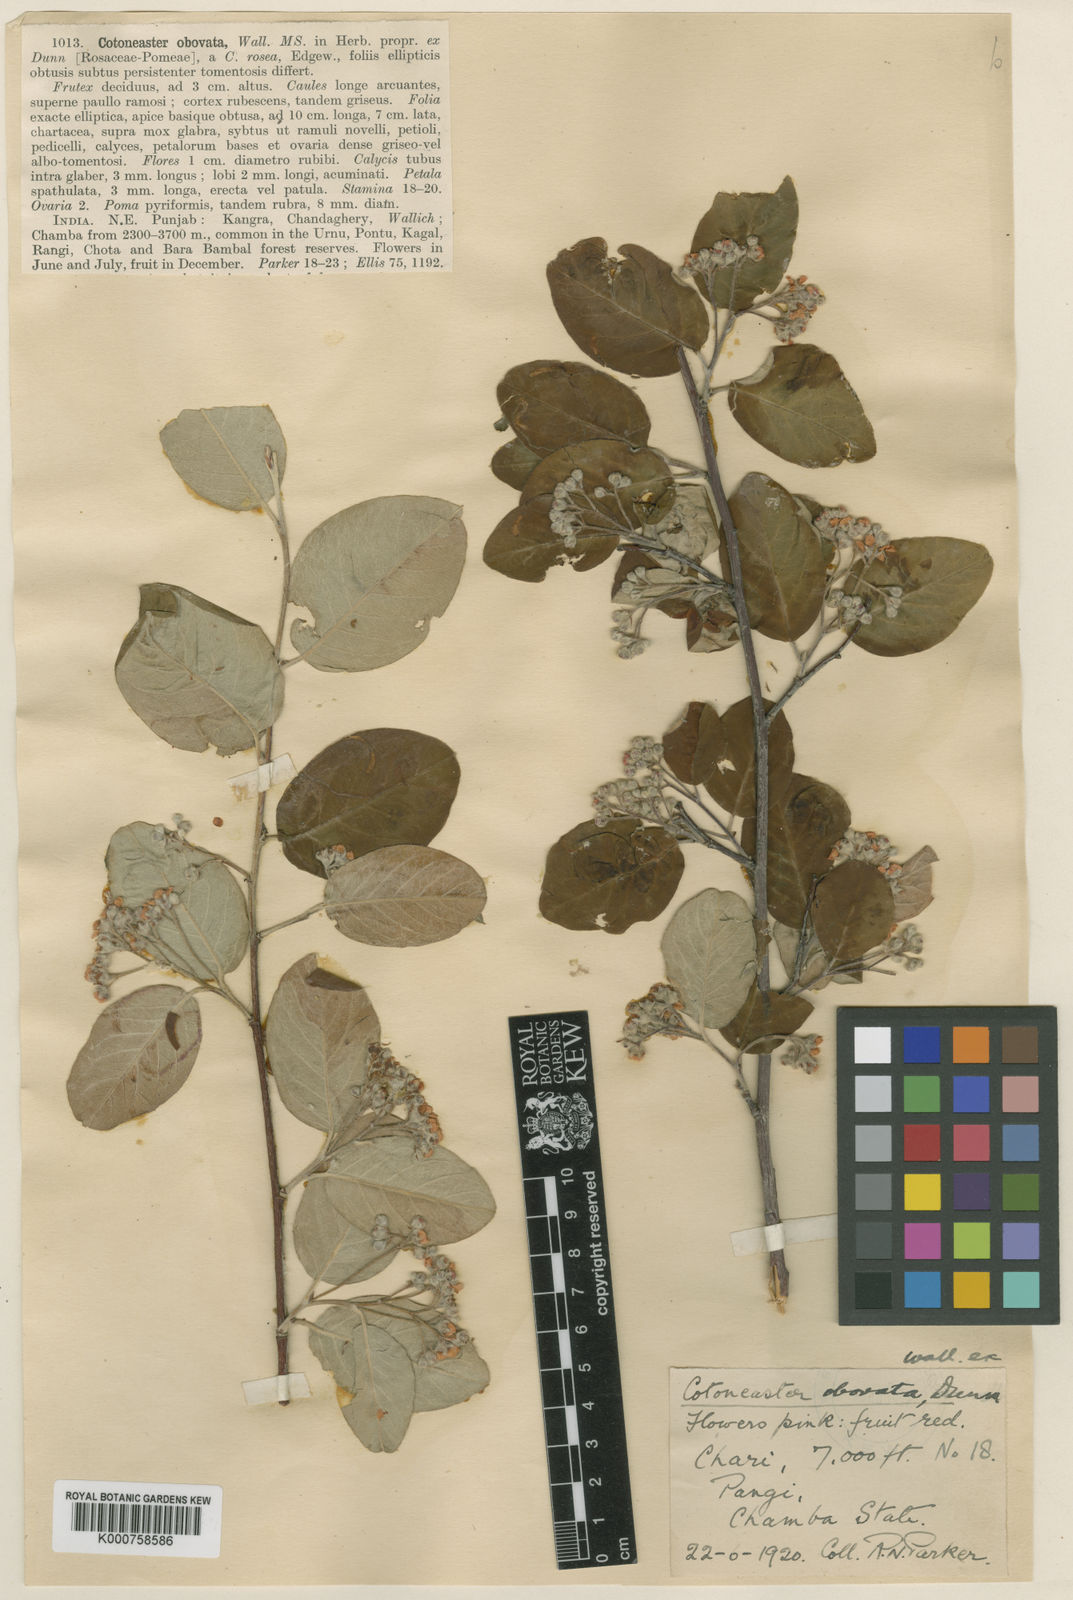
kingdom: Plantae
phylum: Tracheophyta
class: Magnoliopsida
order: Rosales
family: Rosaceae
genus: Cotoneaster
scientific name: Cotoneaster obovatus
